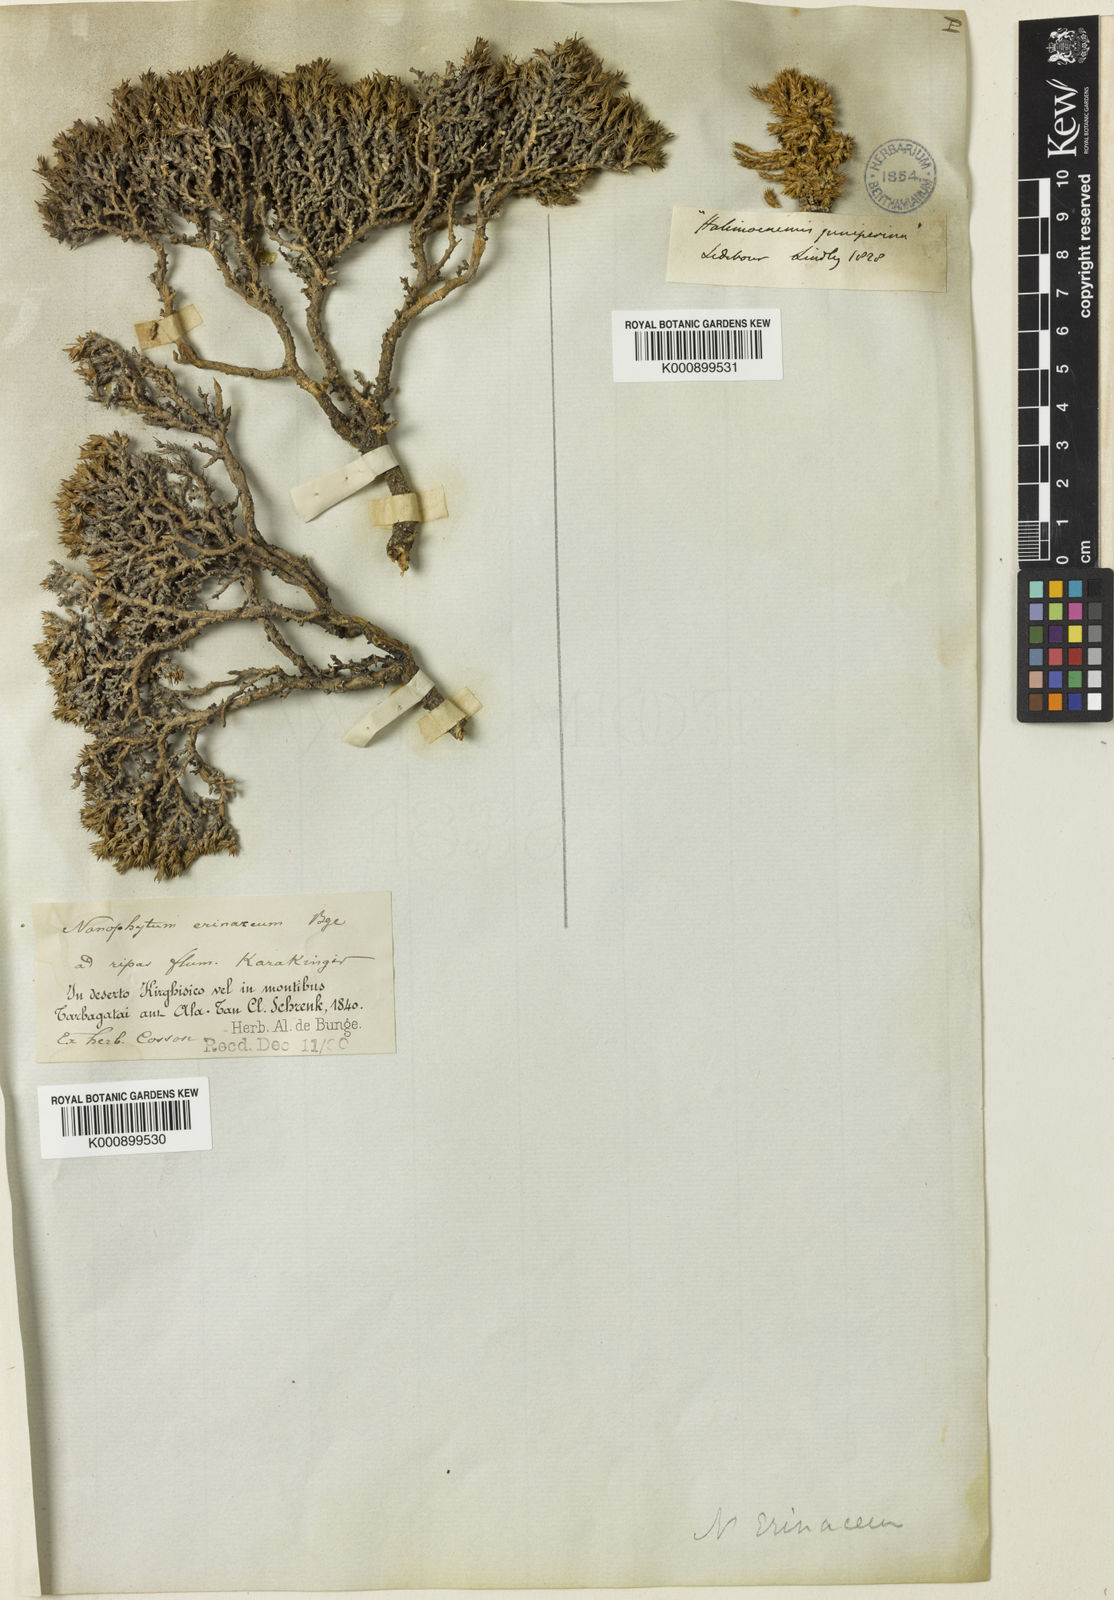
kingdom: Plantae
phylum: Tracheophyta
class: Magnoliopsida
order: Caryophyllales
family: Amaranthaceae
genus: Nanophyton
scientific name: Nanophyton erinaceum
